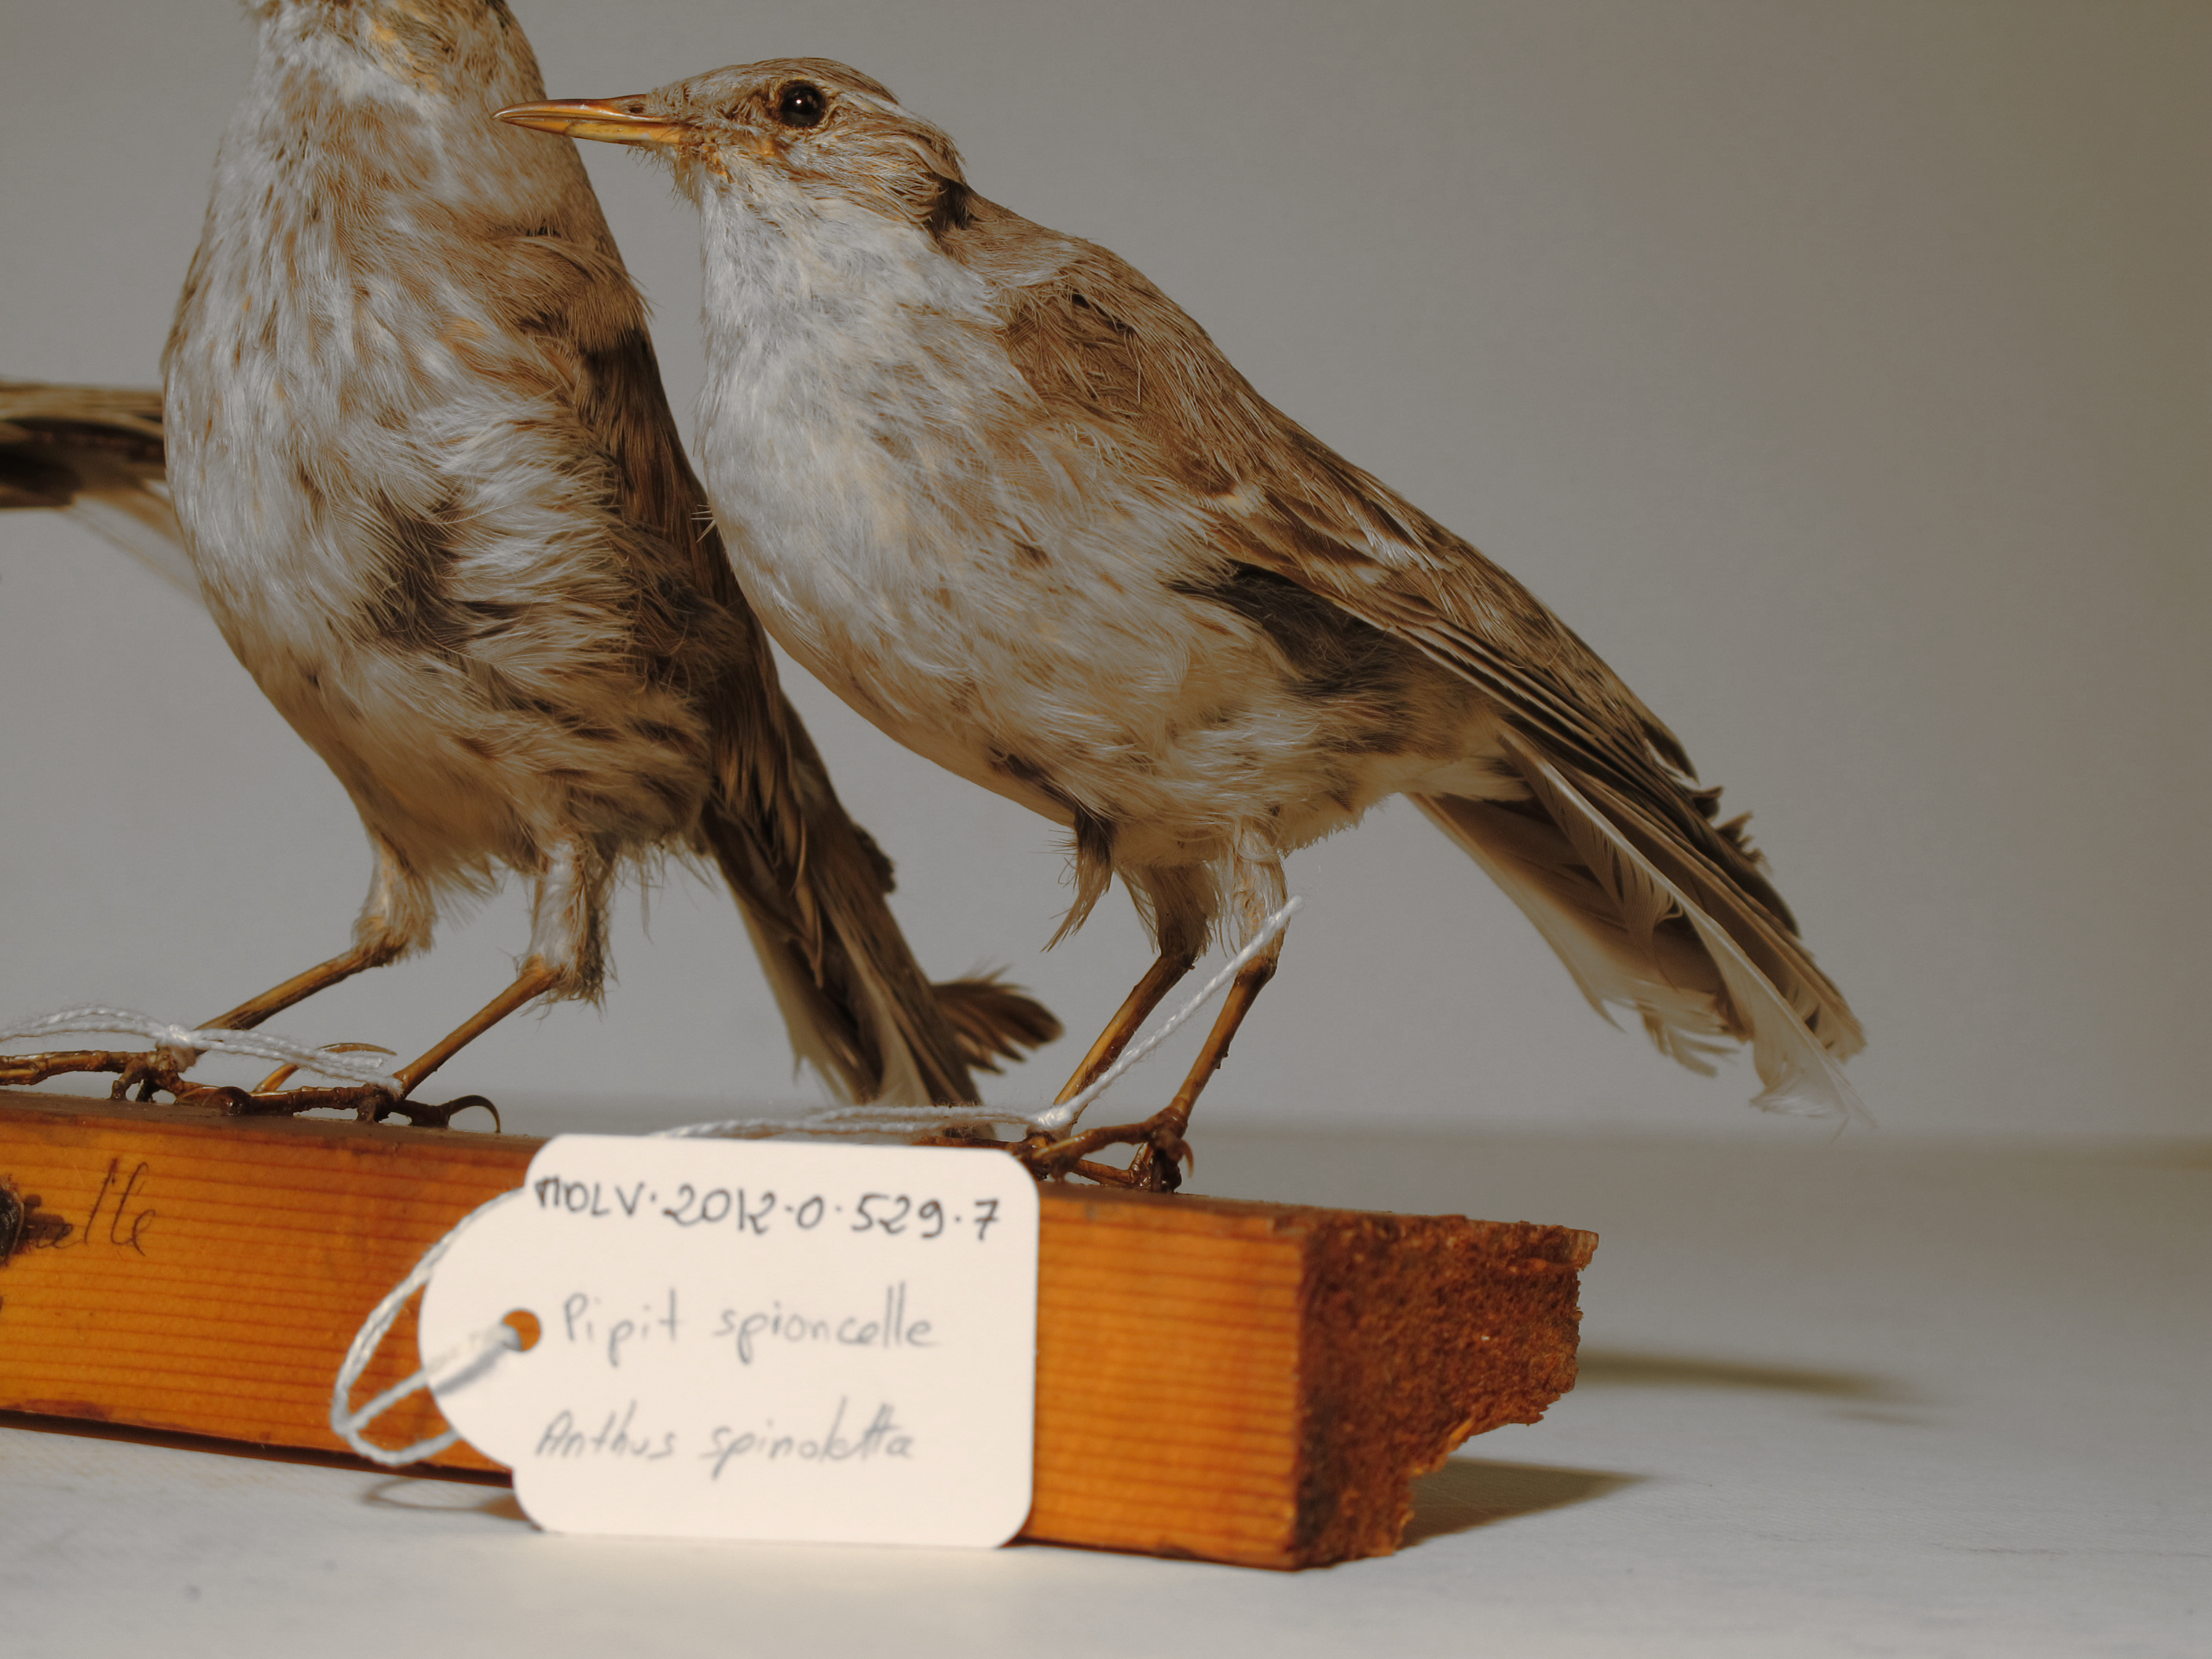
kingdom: Animalia
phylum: Chordata
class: Aves
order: Passeriformes
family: Motacillidae
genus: Anthus
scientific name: Anthus spinoletta
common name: Water Pipit
